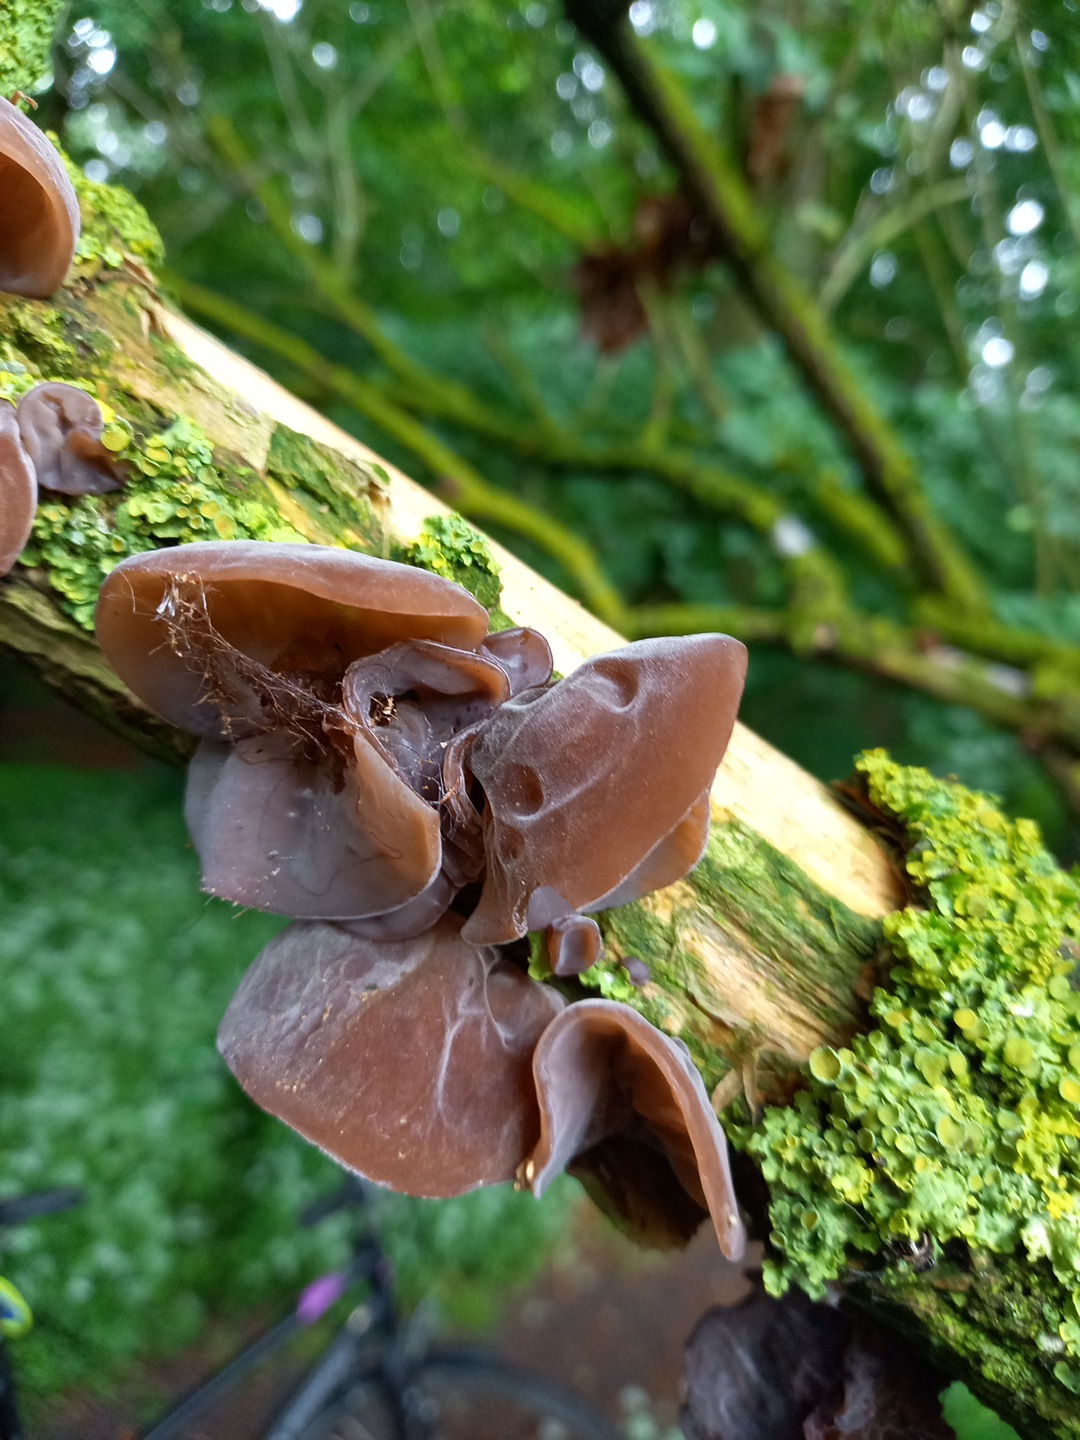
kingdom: Fungi
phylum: Basidiomycota
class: Agaricomycetes
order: Auriculariales
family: Auriculariaceae
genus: Auricularia
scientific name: Auricularia auricula-judae
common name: almindelig judasøre
